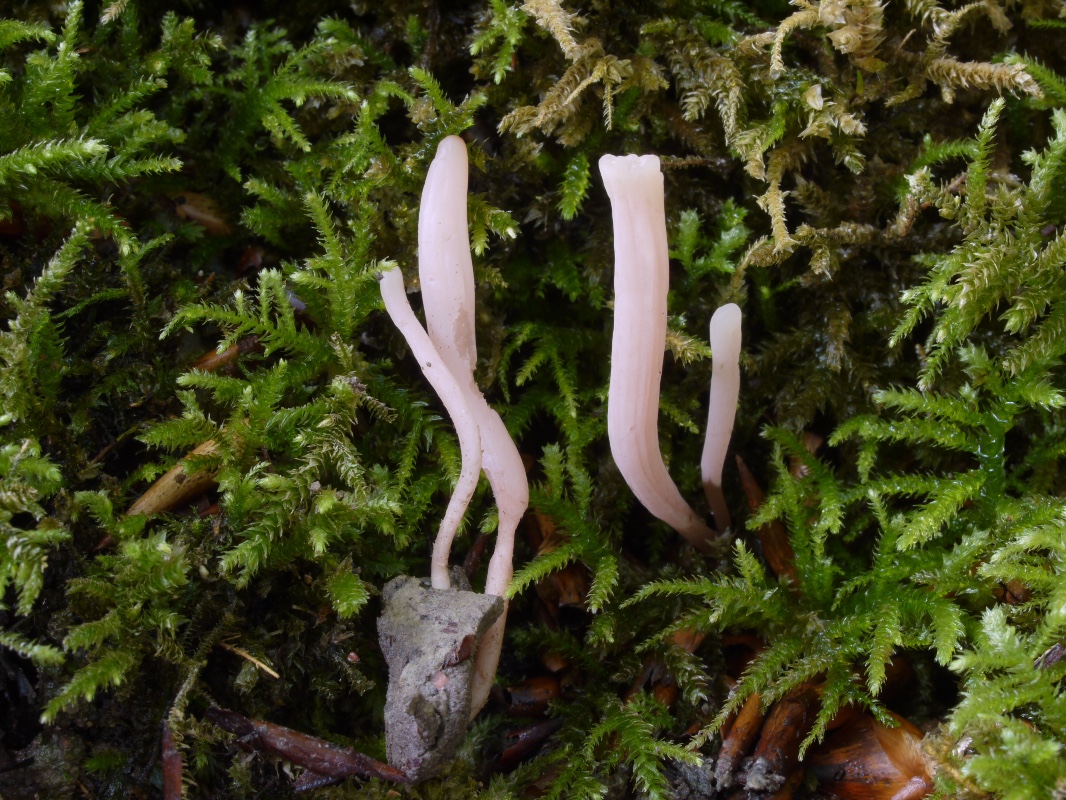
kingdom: Fungi
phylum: Basidiomycota
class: Agaricomycetes
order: Agaricales
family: Clavariaceae
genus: Clavaria
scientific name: Clavaria incarnata
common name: kødrød køllesvamp
